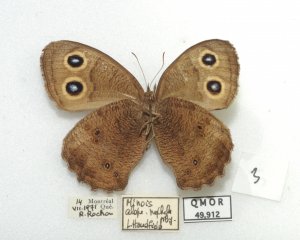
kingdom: Animalia
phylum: Arthropoda
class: Insecta
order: Lepidoptera
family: Nymphalidae
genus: Cercyonis
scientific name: Cercyonis pegala
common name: Common Wood-Nymph
